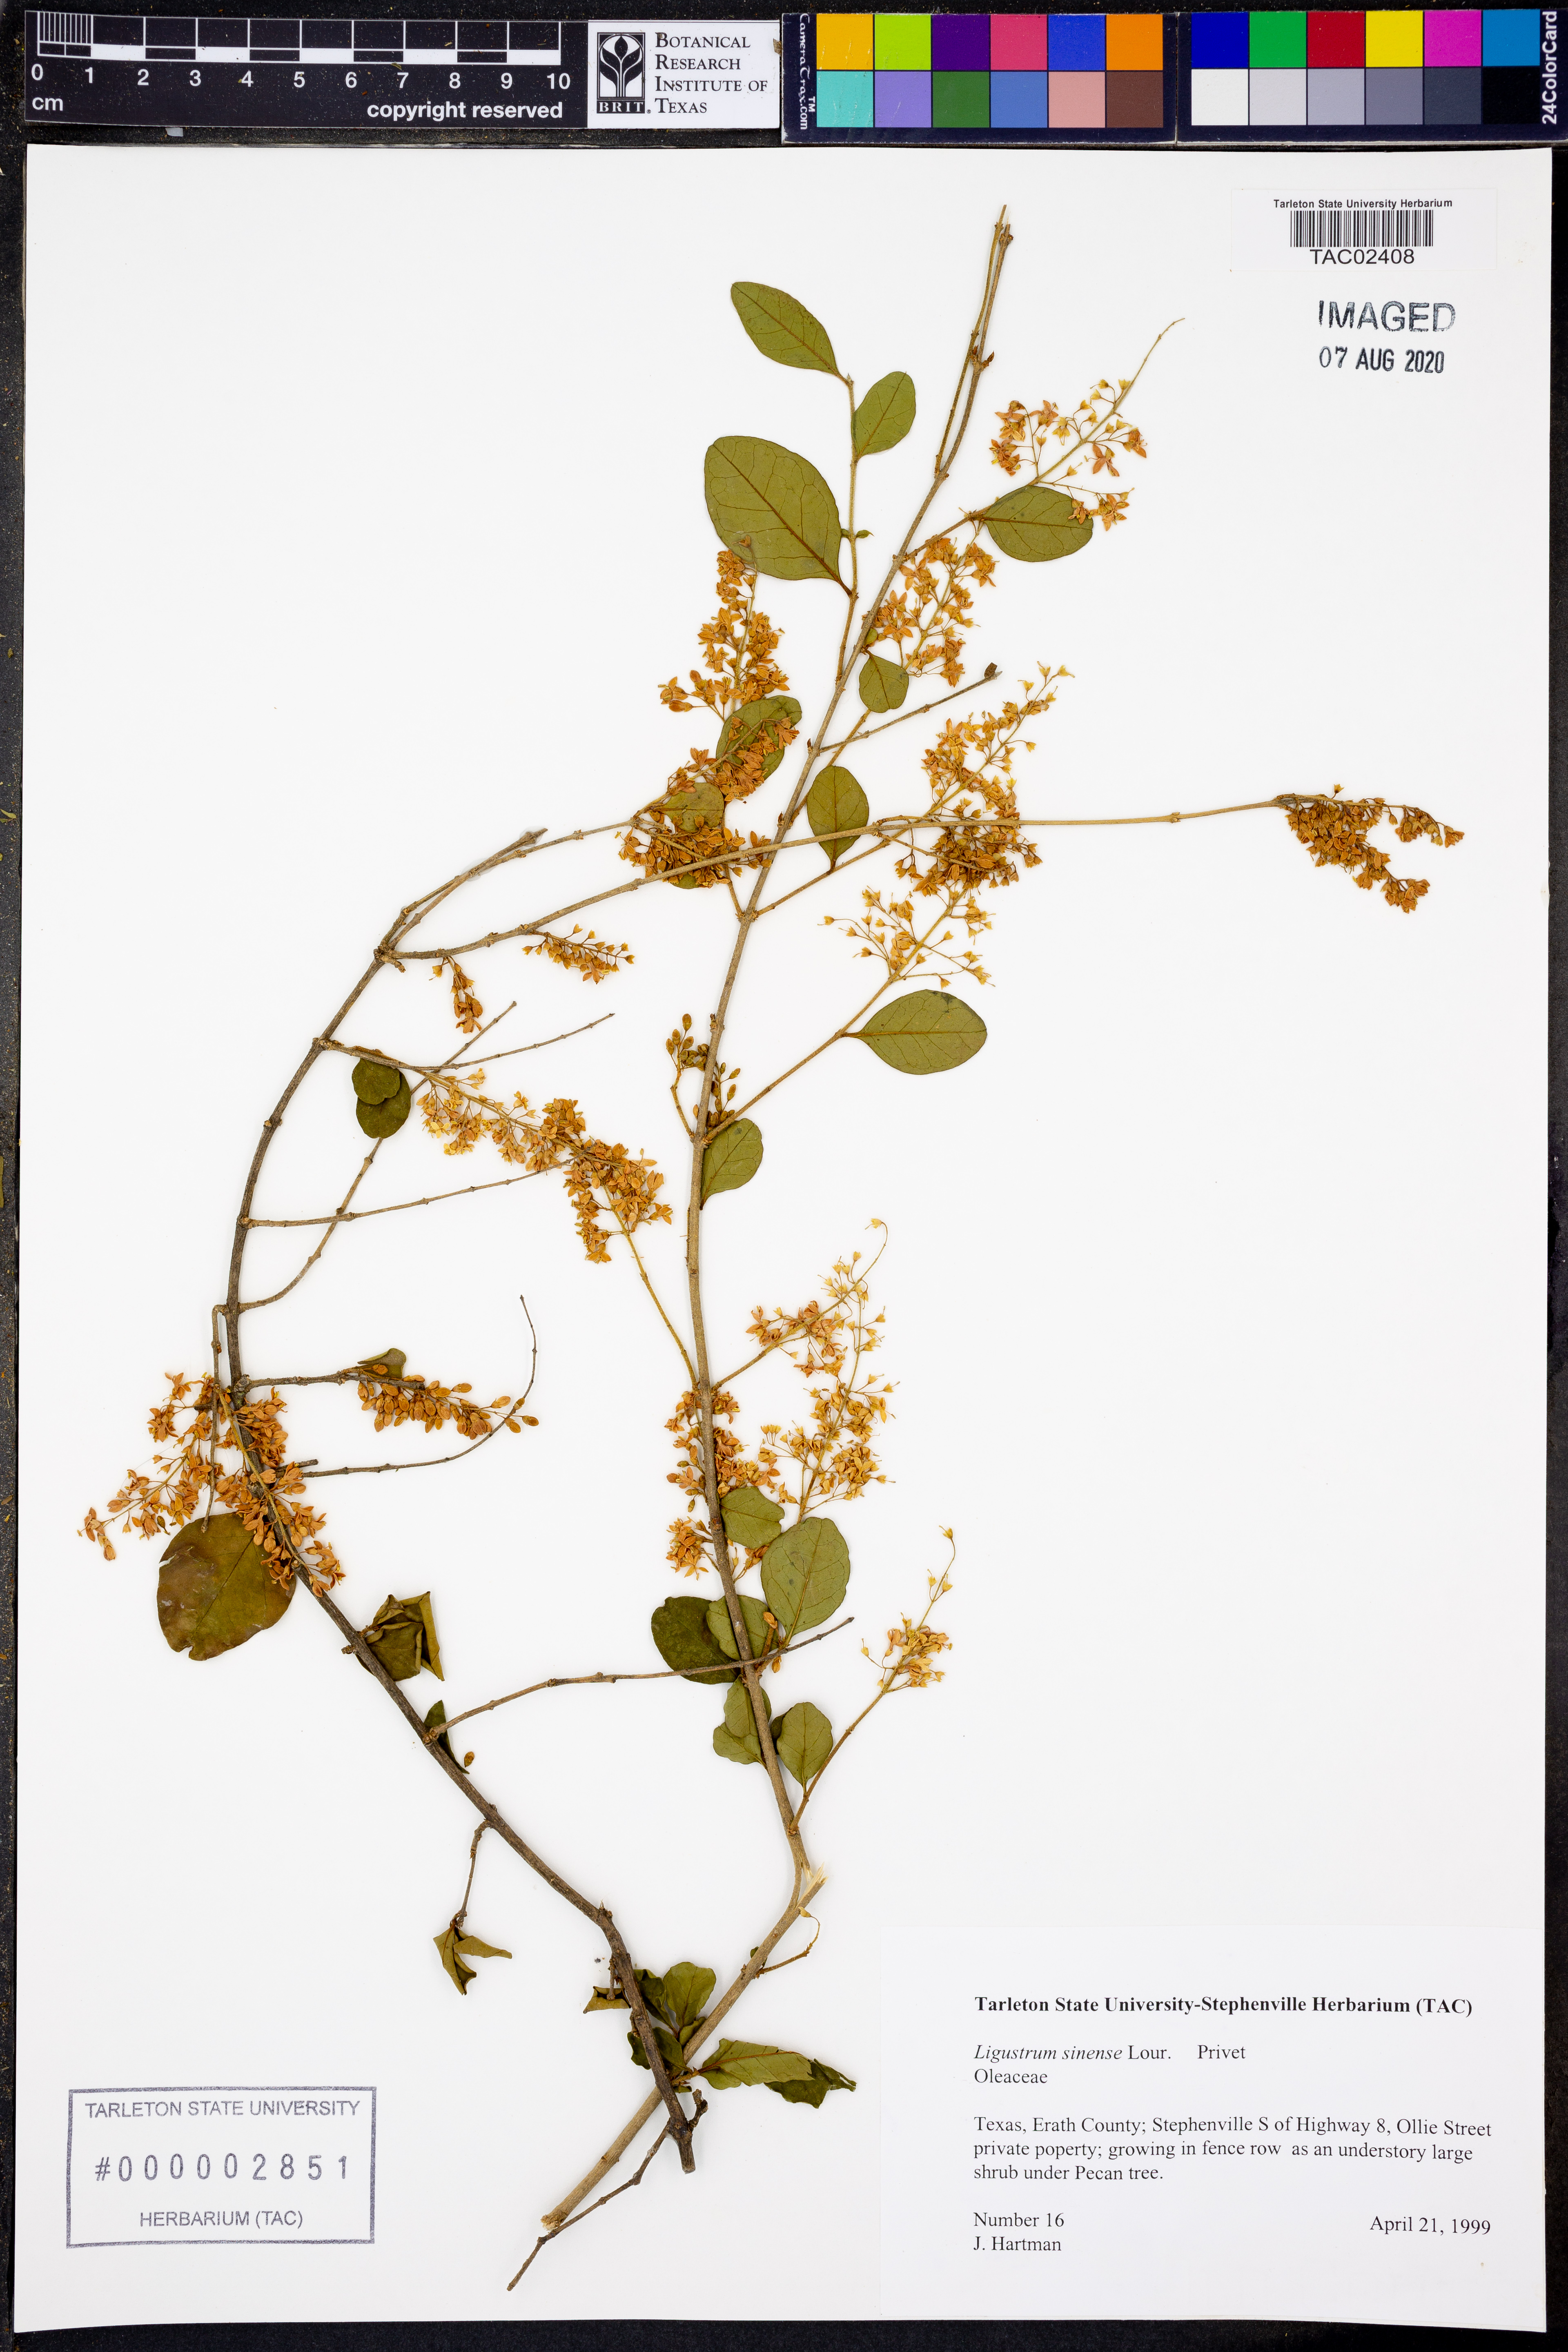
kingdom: Plantae
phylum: Tracheophyta
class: Magnoliopsida
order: Lamiales
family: Oleaceae
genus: Ligustrum
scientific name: Ligustrum sinense
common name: Chinese privet
